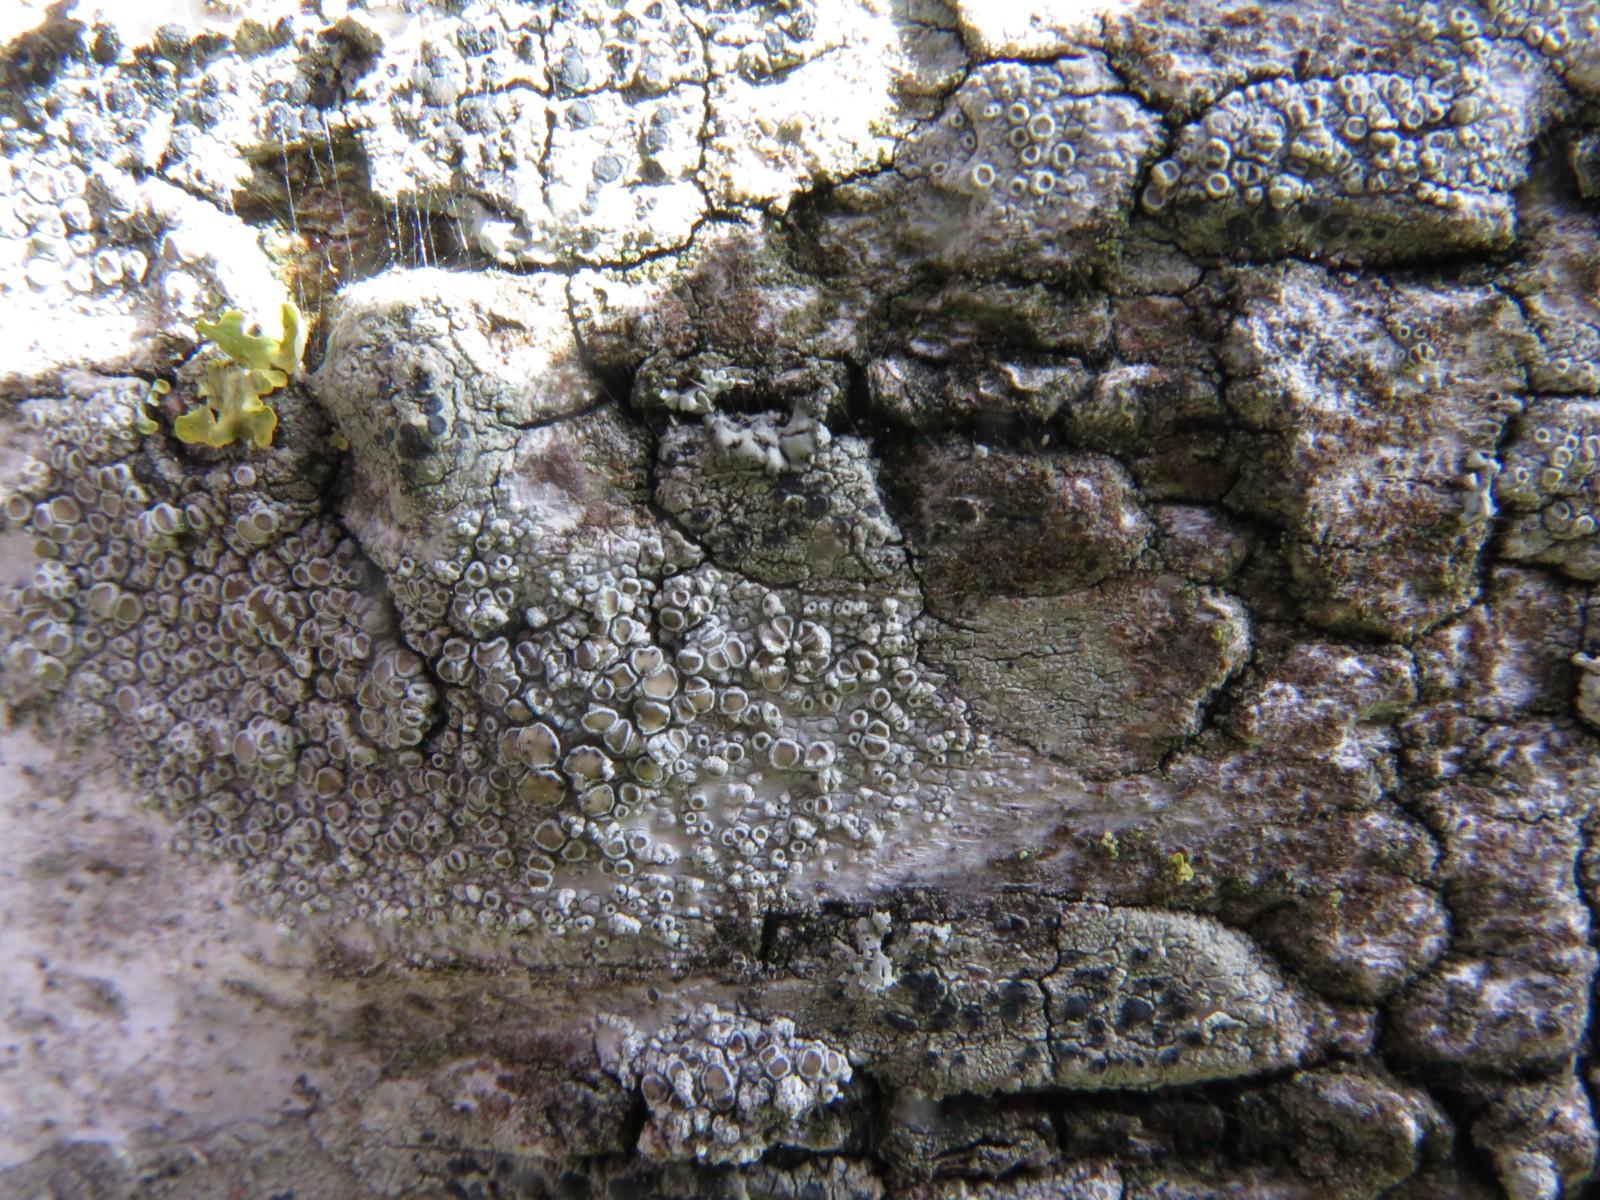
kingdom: Fungi
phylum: Ascomycota
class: Dothideomycetes
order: Pleosporales
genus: Vouauxiella
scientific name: Vouauxiella lichenicola
